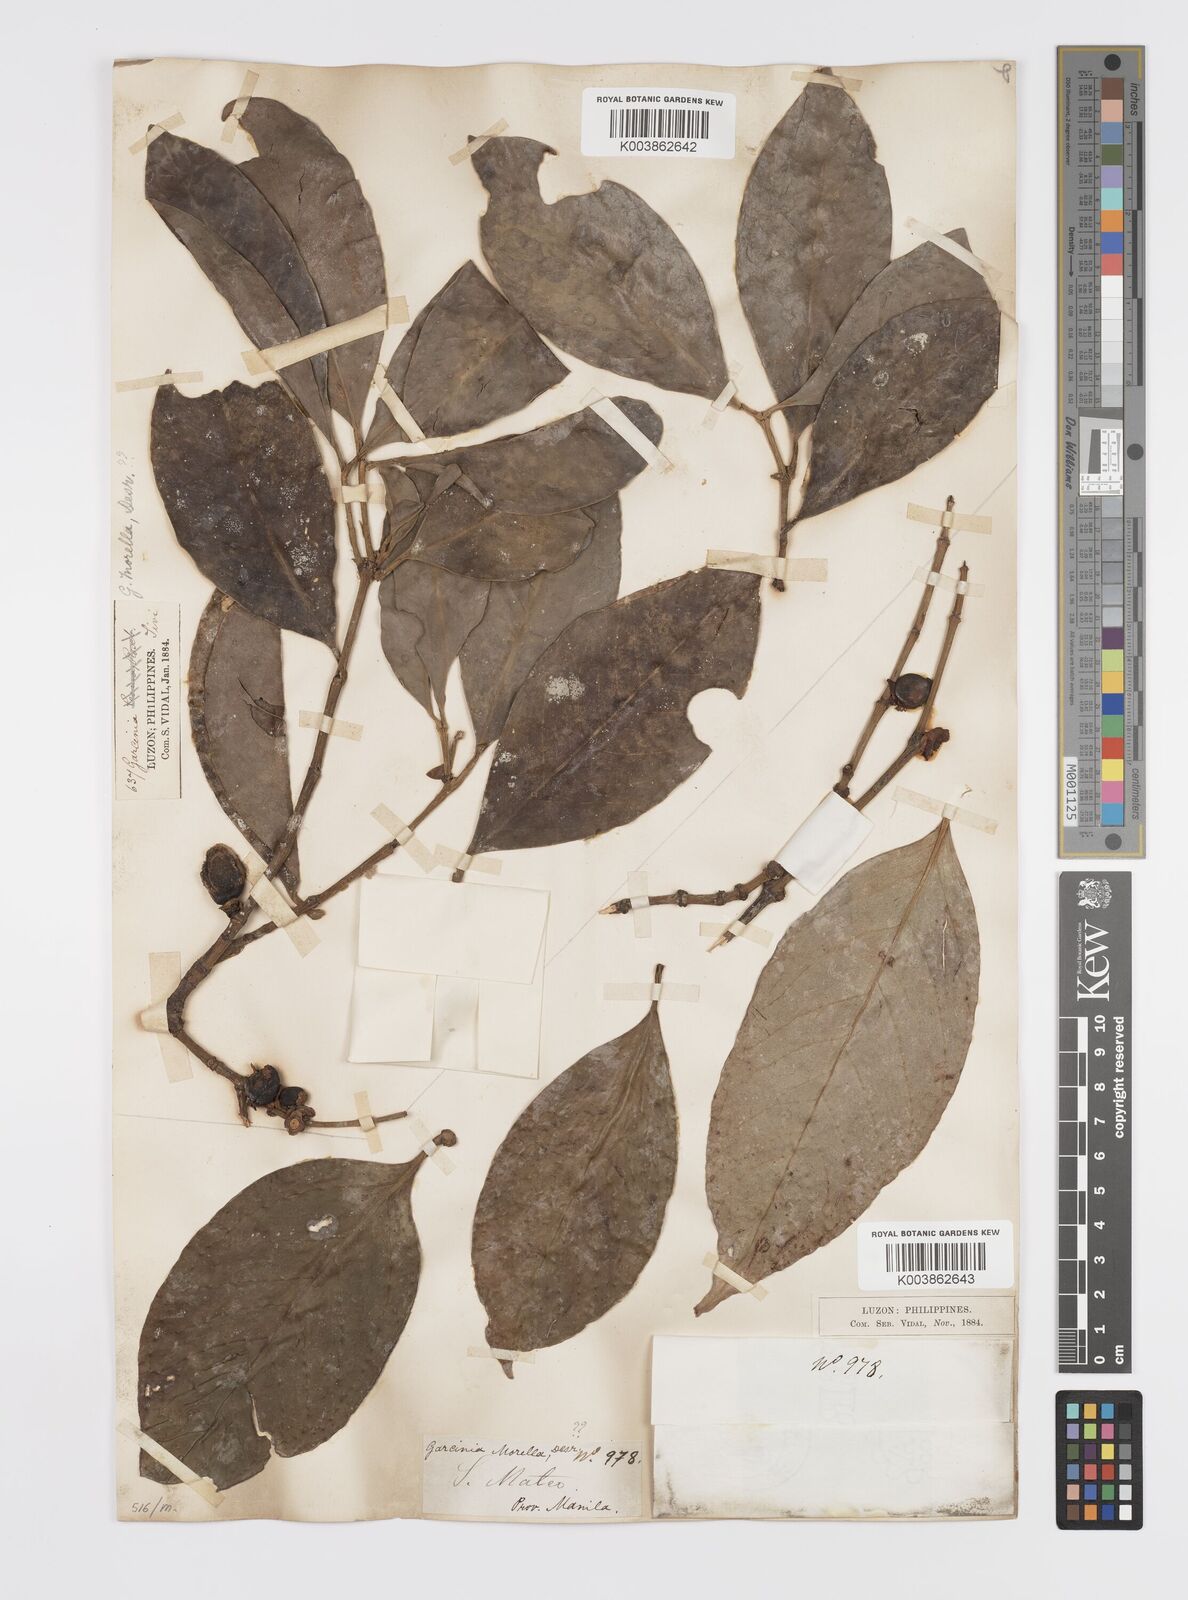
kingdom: Plantae
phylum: Tracheophyta
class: Magnoliopsida
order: Malpighiales
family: Clusiaceae
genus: Garcinia
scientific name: Garcinia
